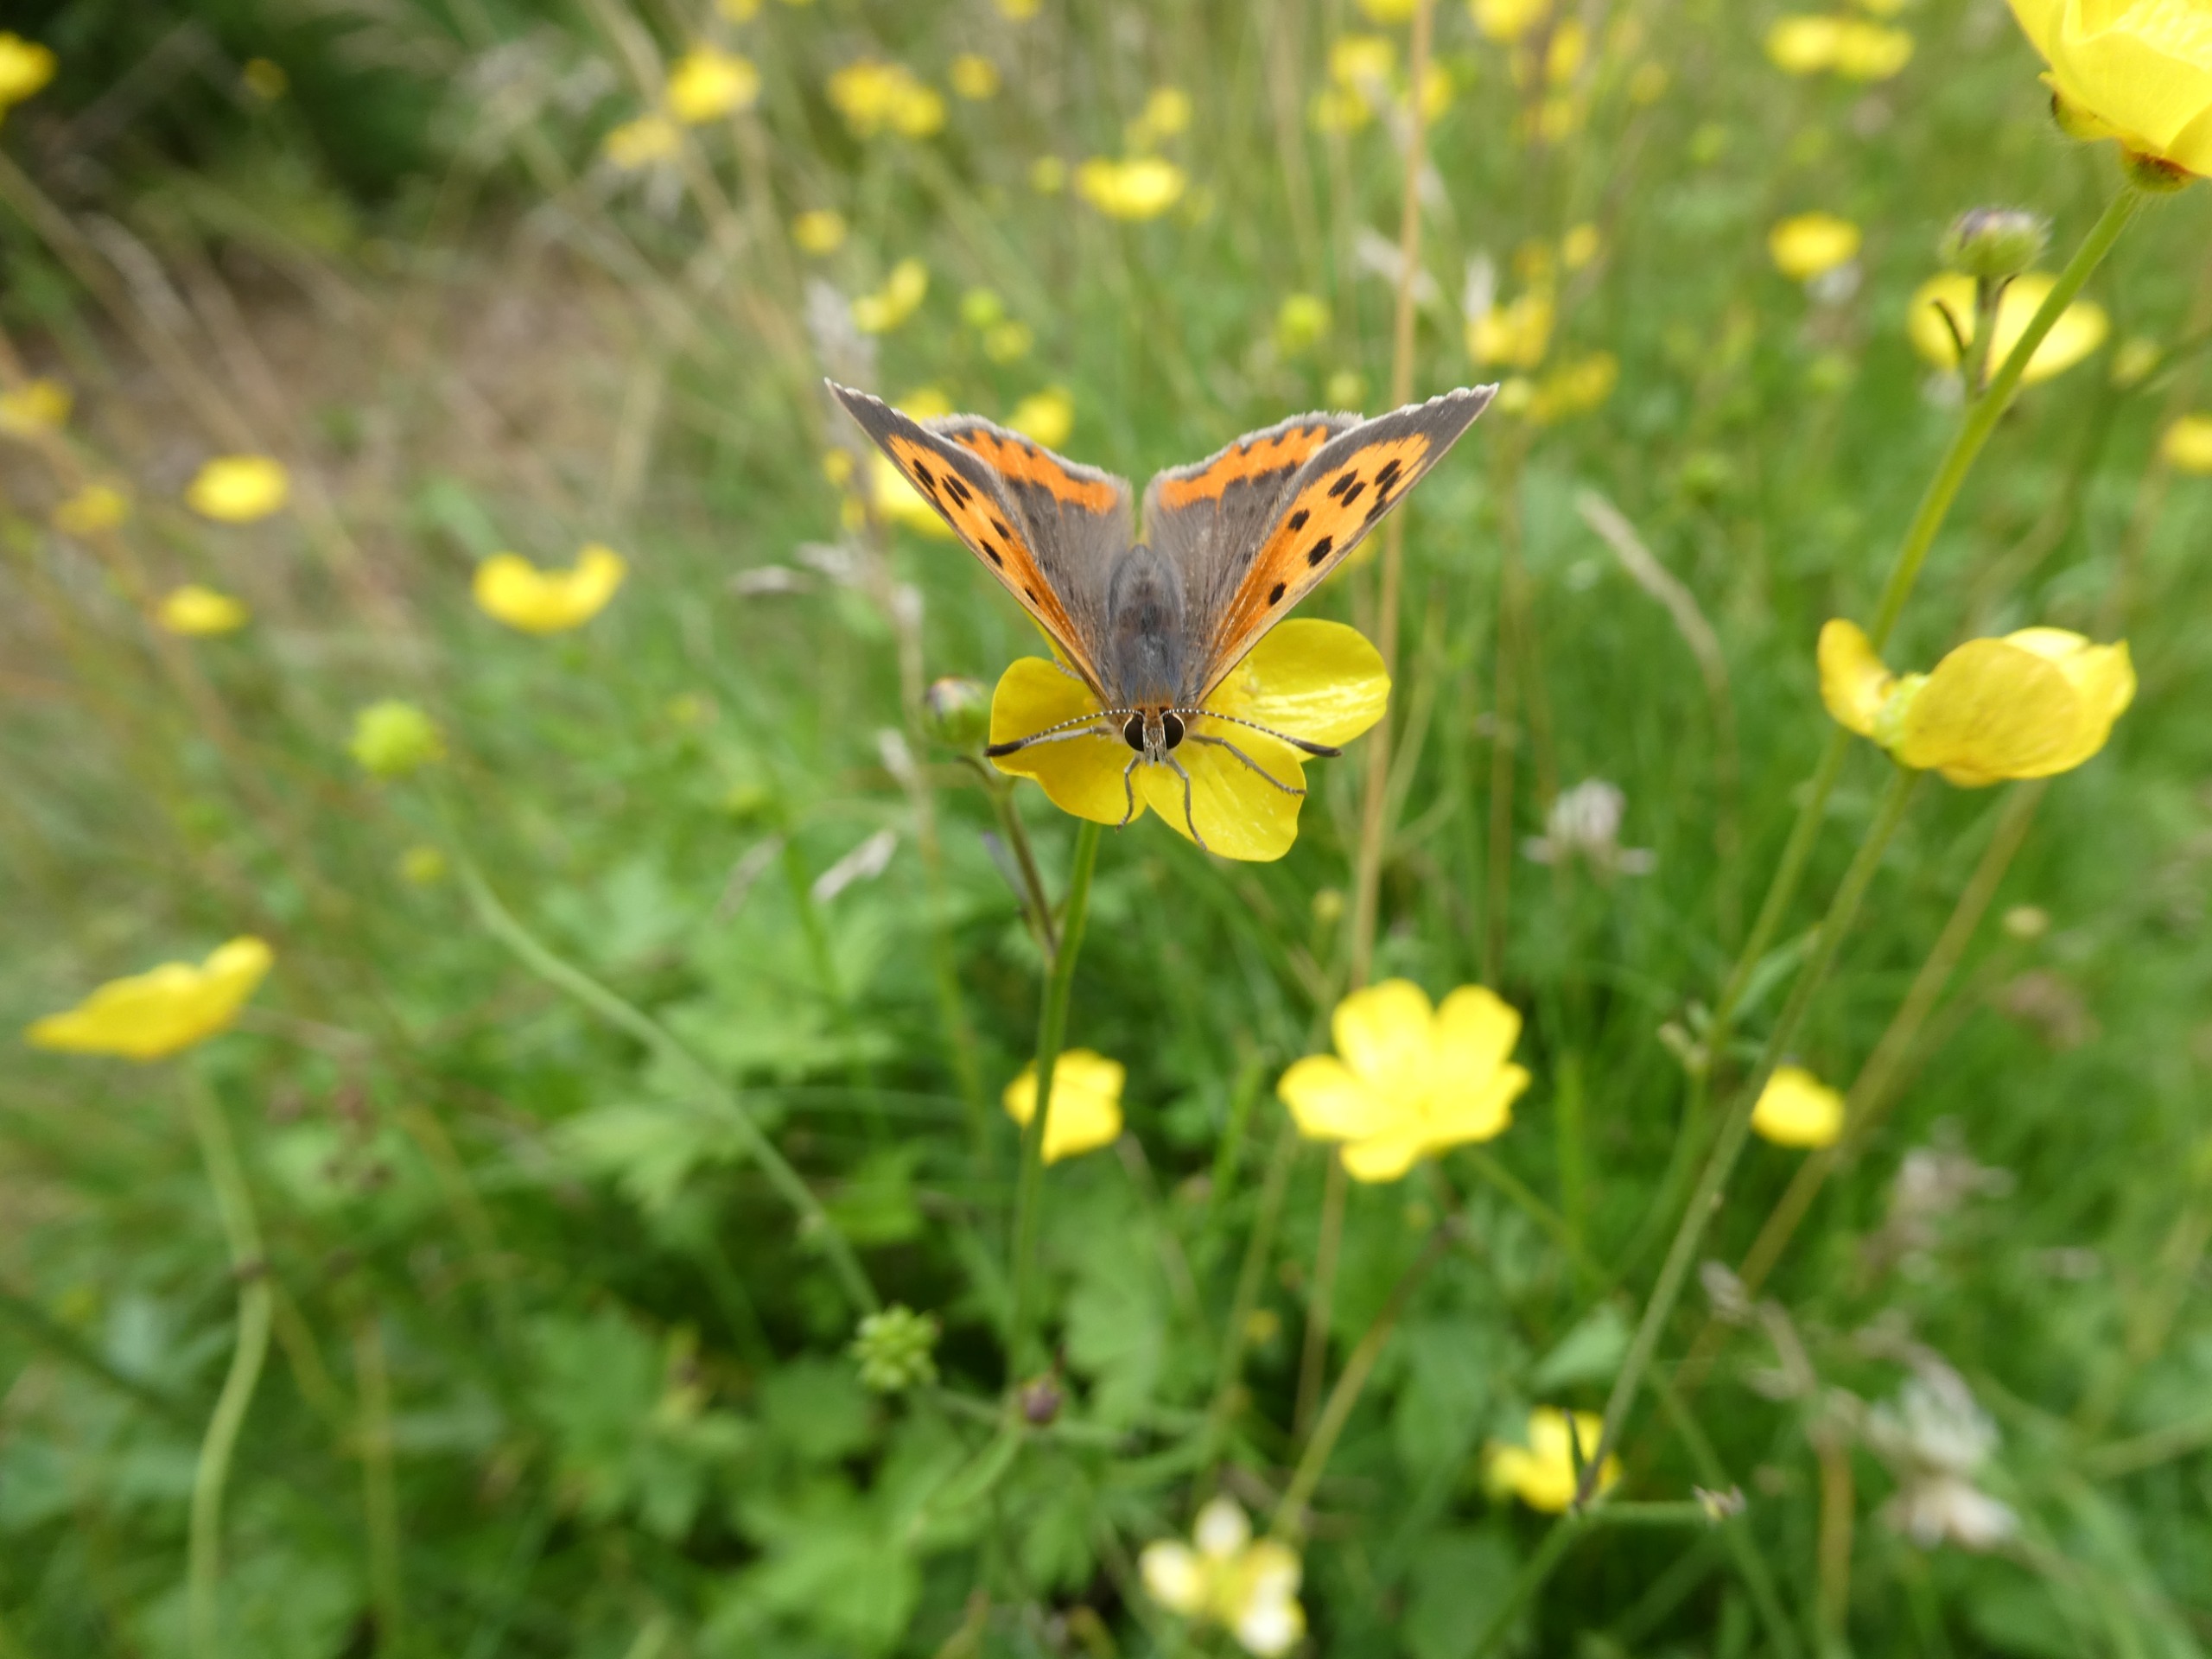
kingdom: Animalia
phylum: Arthropoda
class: Insecta
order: Lepidoptera
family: Lycaenidae
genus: Lycaena
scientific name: Lycaena phlaeas
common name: Lille ildfugl
